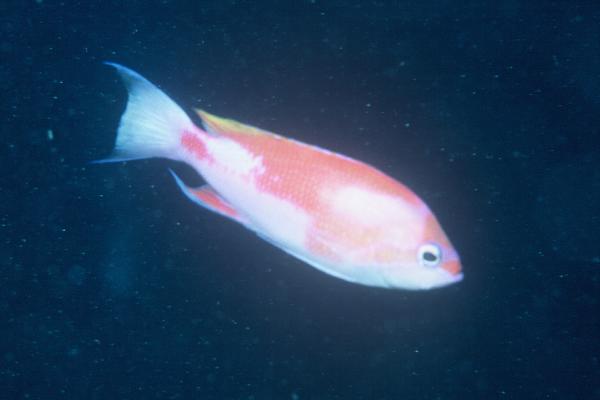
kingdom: Animalia
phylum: Chordata
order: Perciformes
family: Serranidae
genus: Pseudanthias
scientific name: Pseudanthias hutomoi
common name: Four-spot basslet
